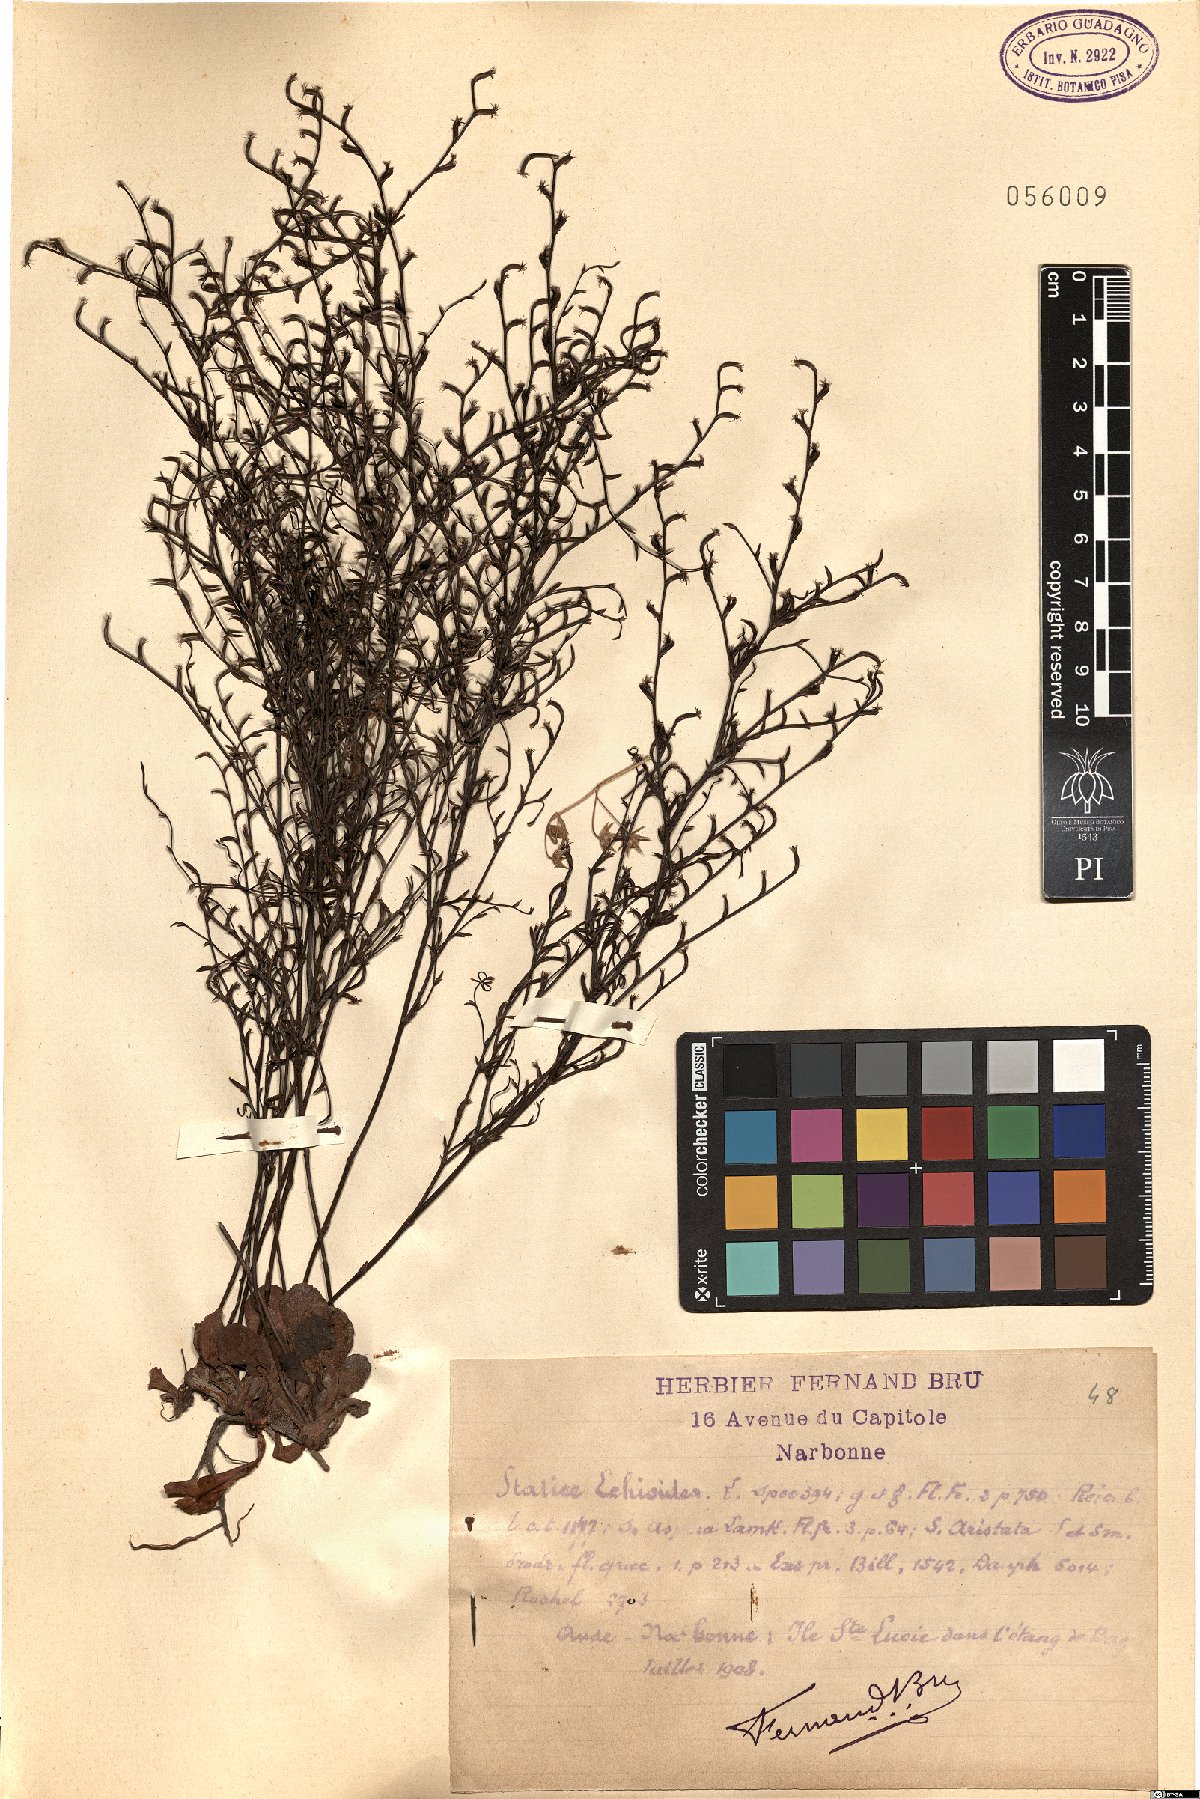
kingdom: Plantae
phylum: Tracheophyta
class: Magnoliopsida
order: Caryophyllales
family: Plumbaginaceae
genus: Limonium
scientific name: Limonium echioides
